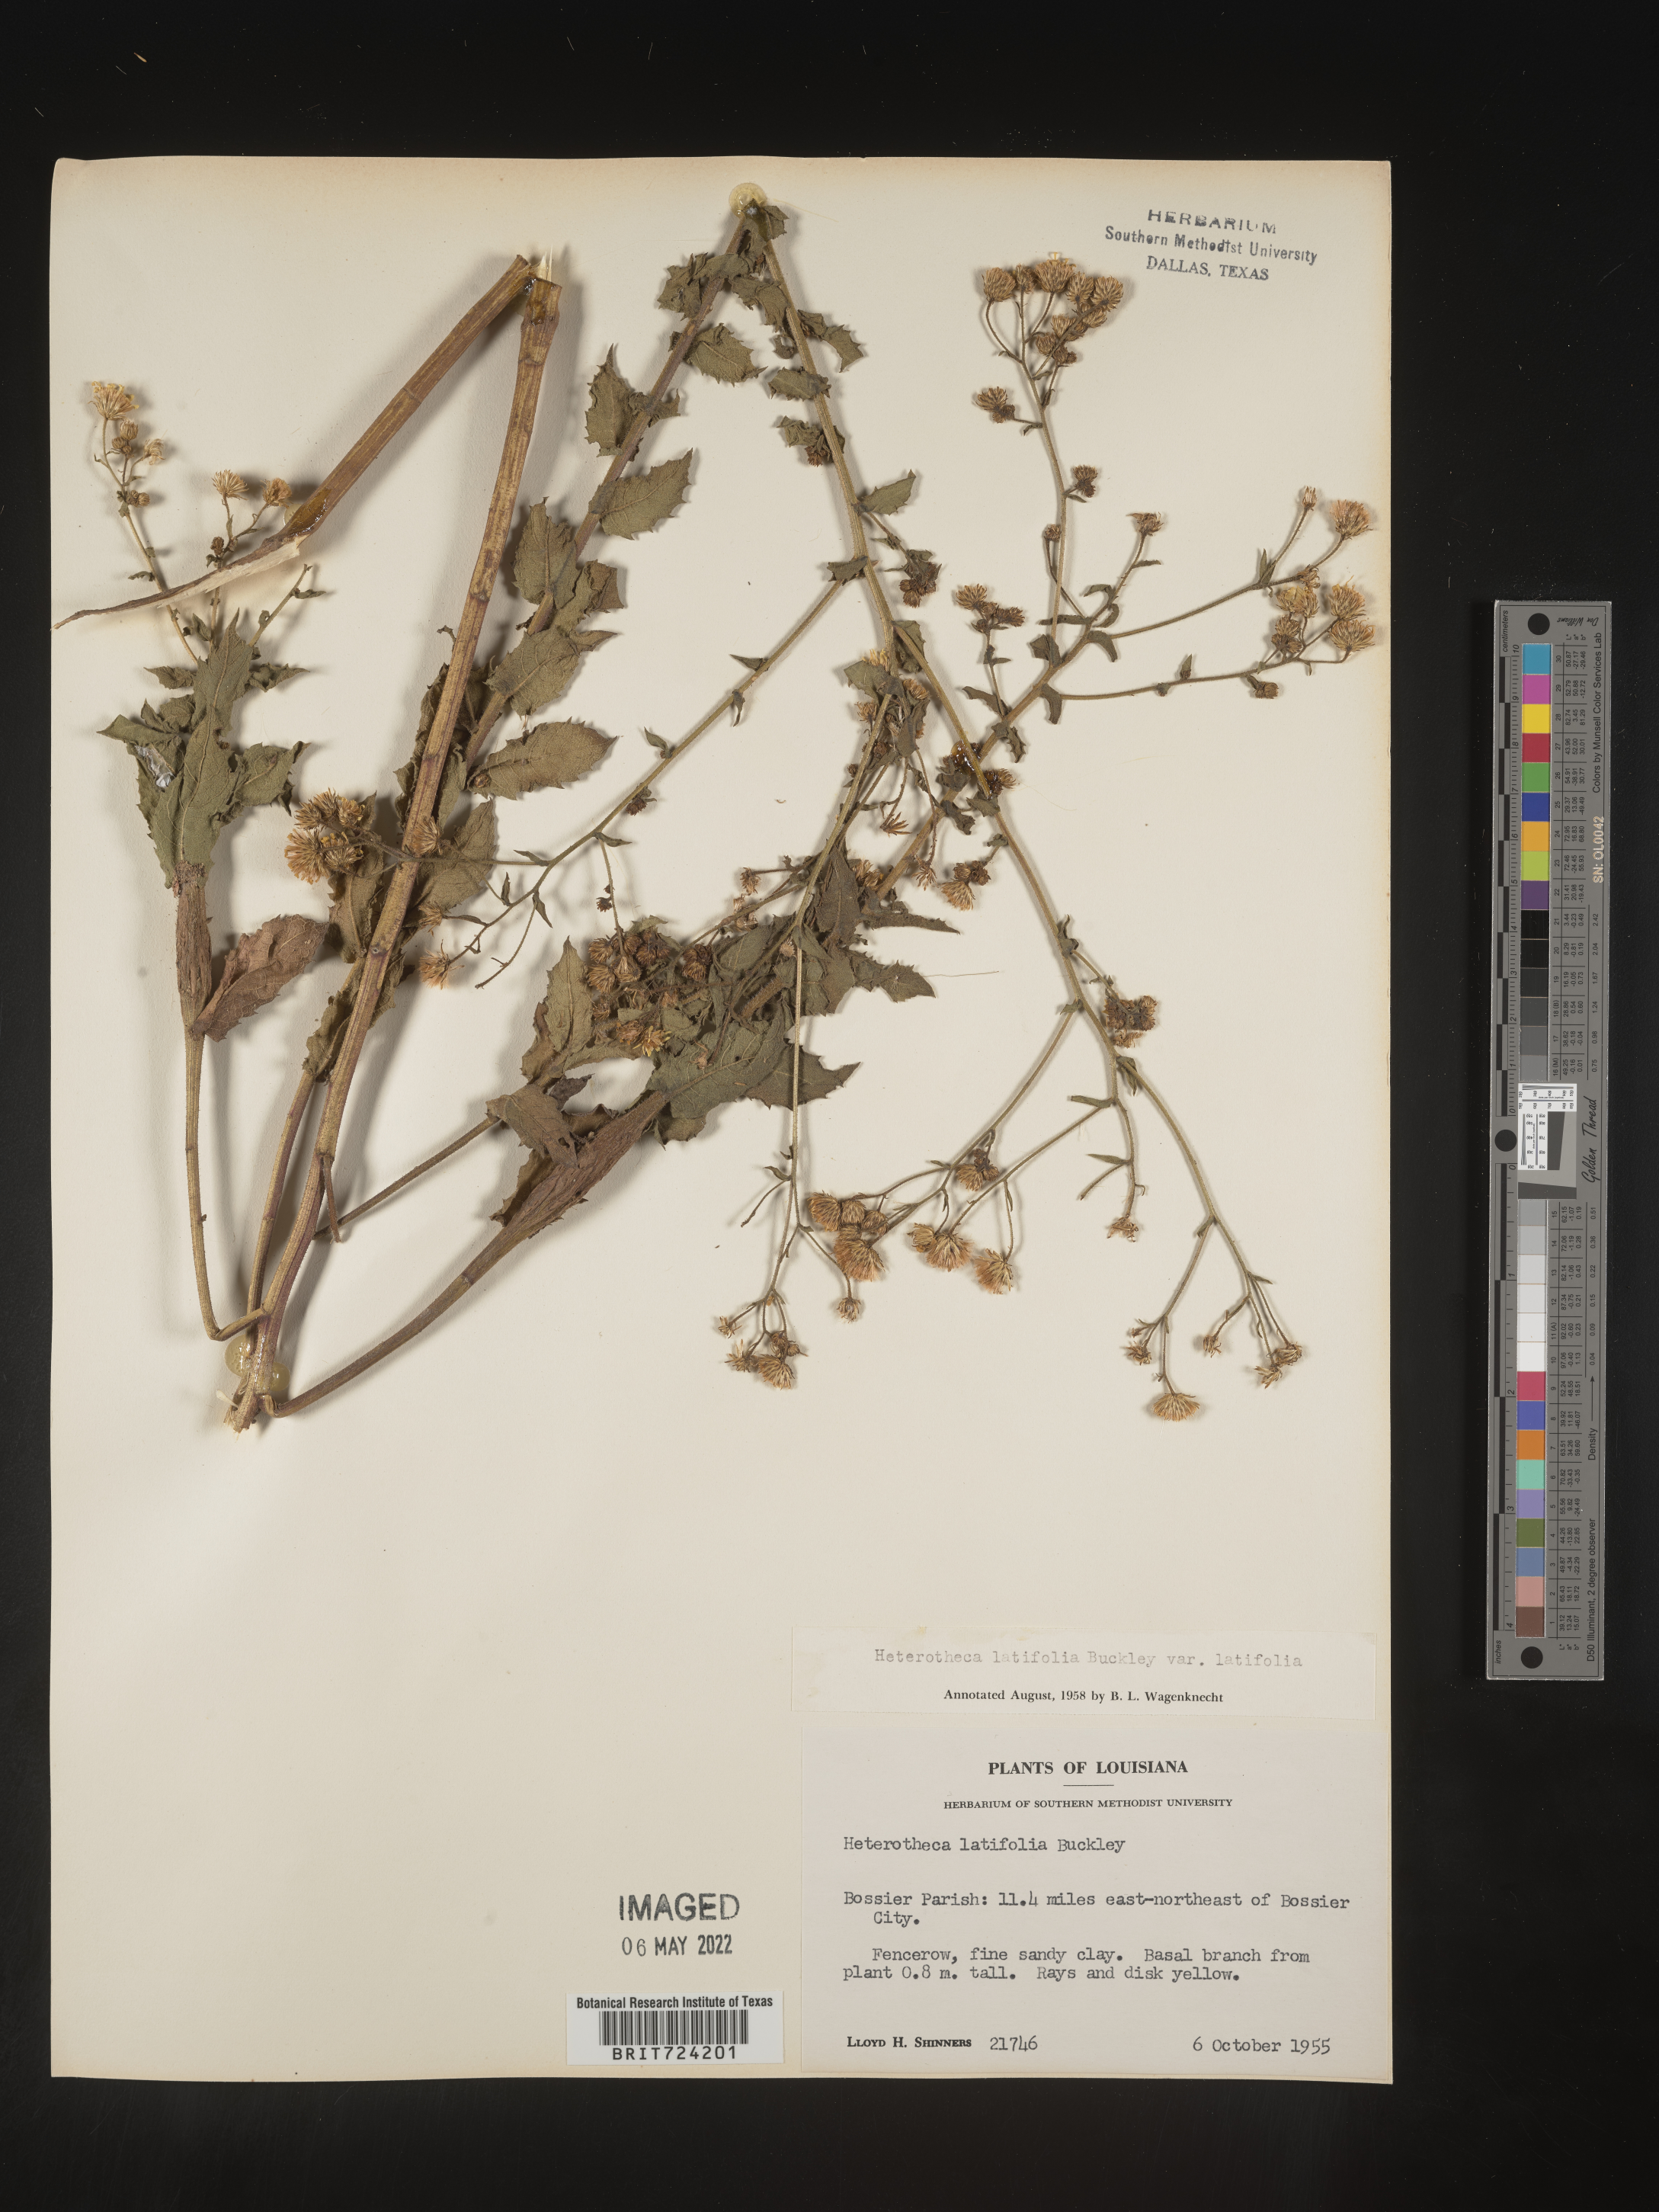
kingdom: Plantae
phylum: Tracheophyta
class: Magnoliopsida
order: Asterales
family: Asteraceae
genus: Heterotheca
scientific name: Heterotheca subaxillaris
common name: Camphorweed
